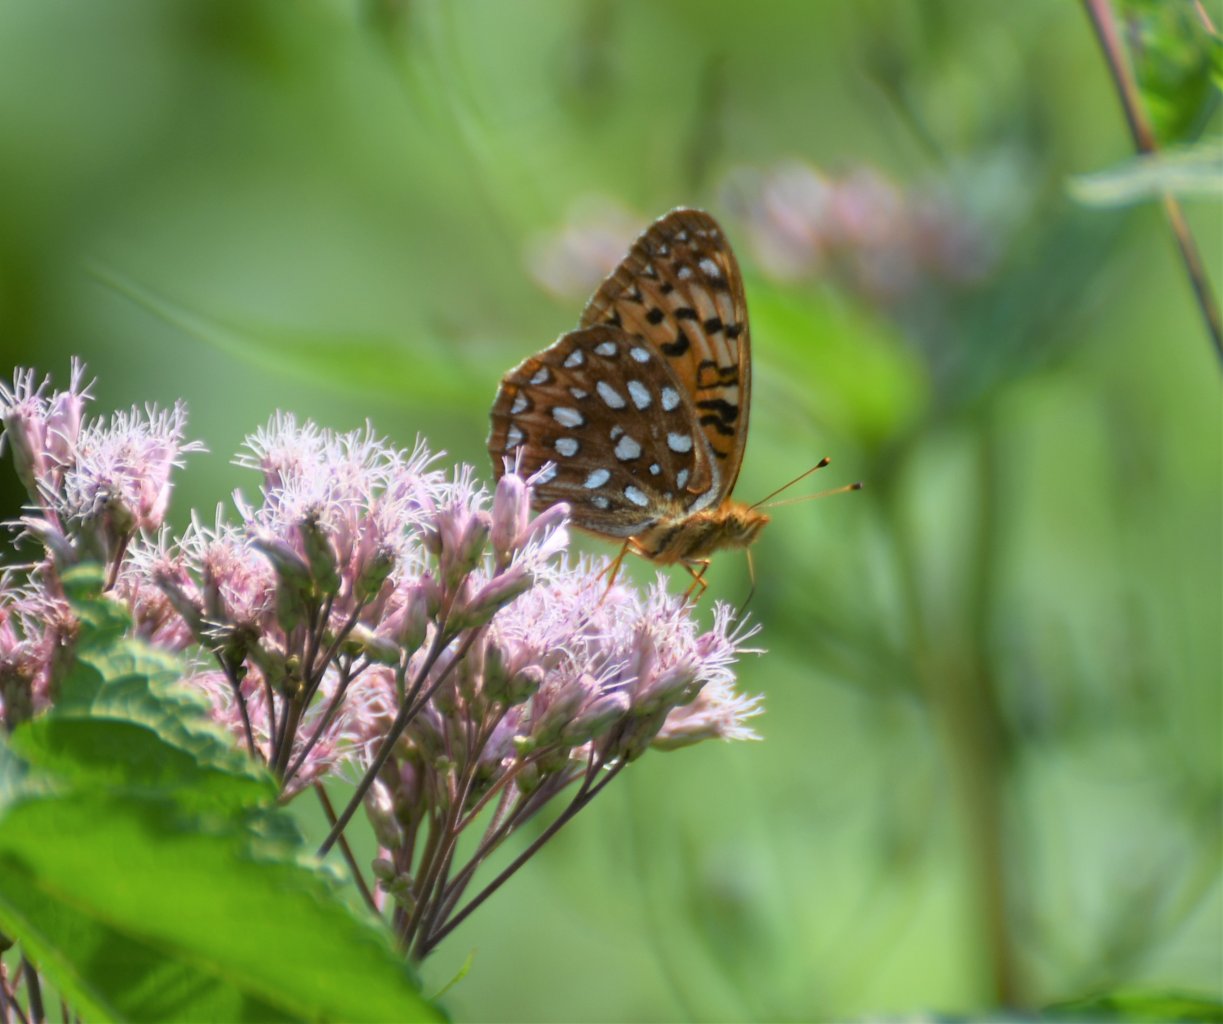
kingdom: Animalia
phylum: Arthropoda
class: Insecta
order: Lepidoptera
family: Nymphalidae
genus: Speyeria
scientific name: Speyeria
